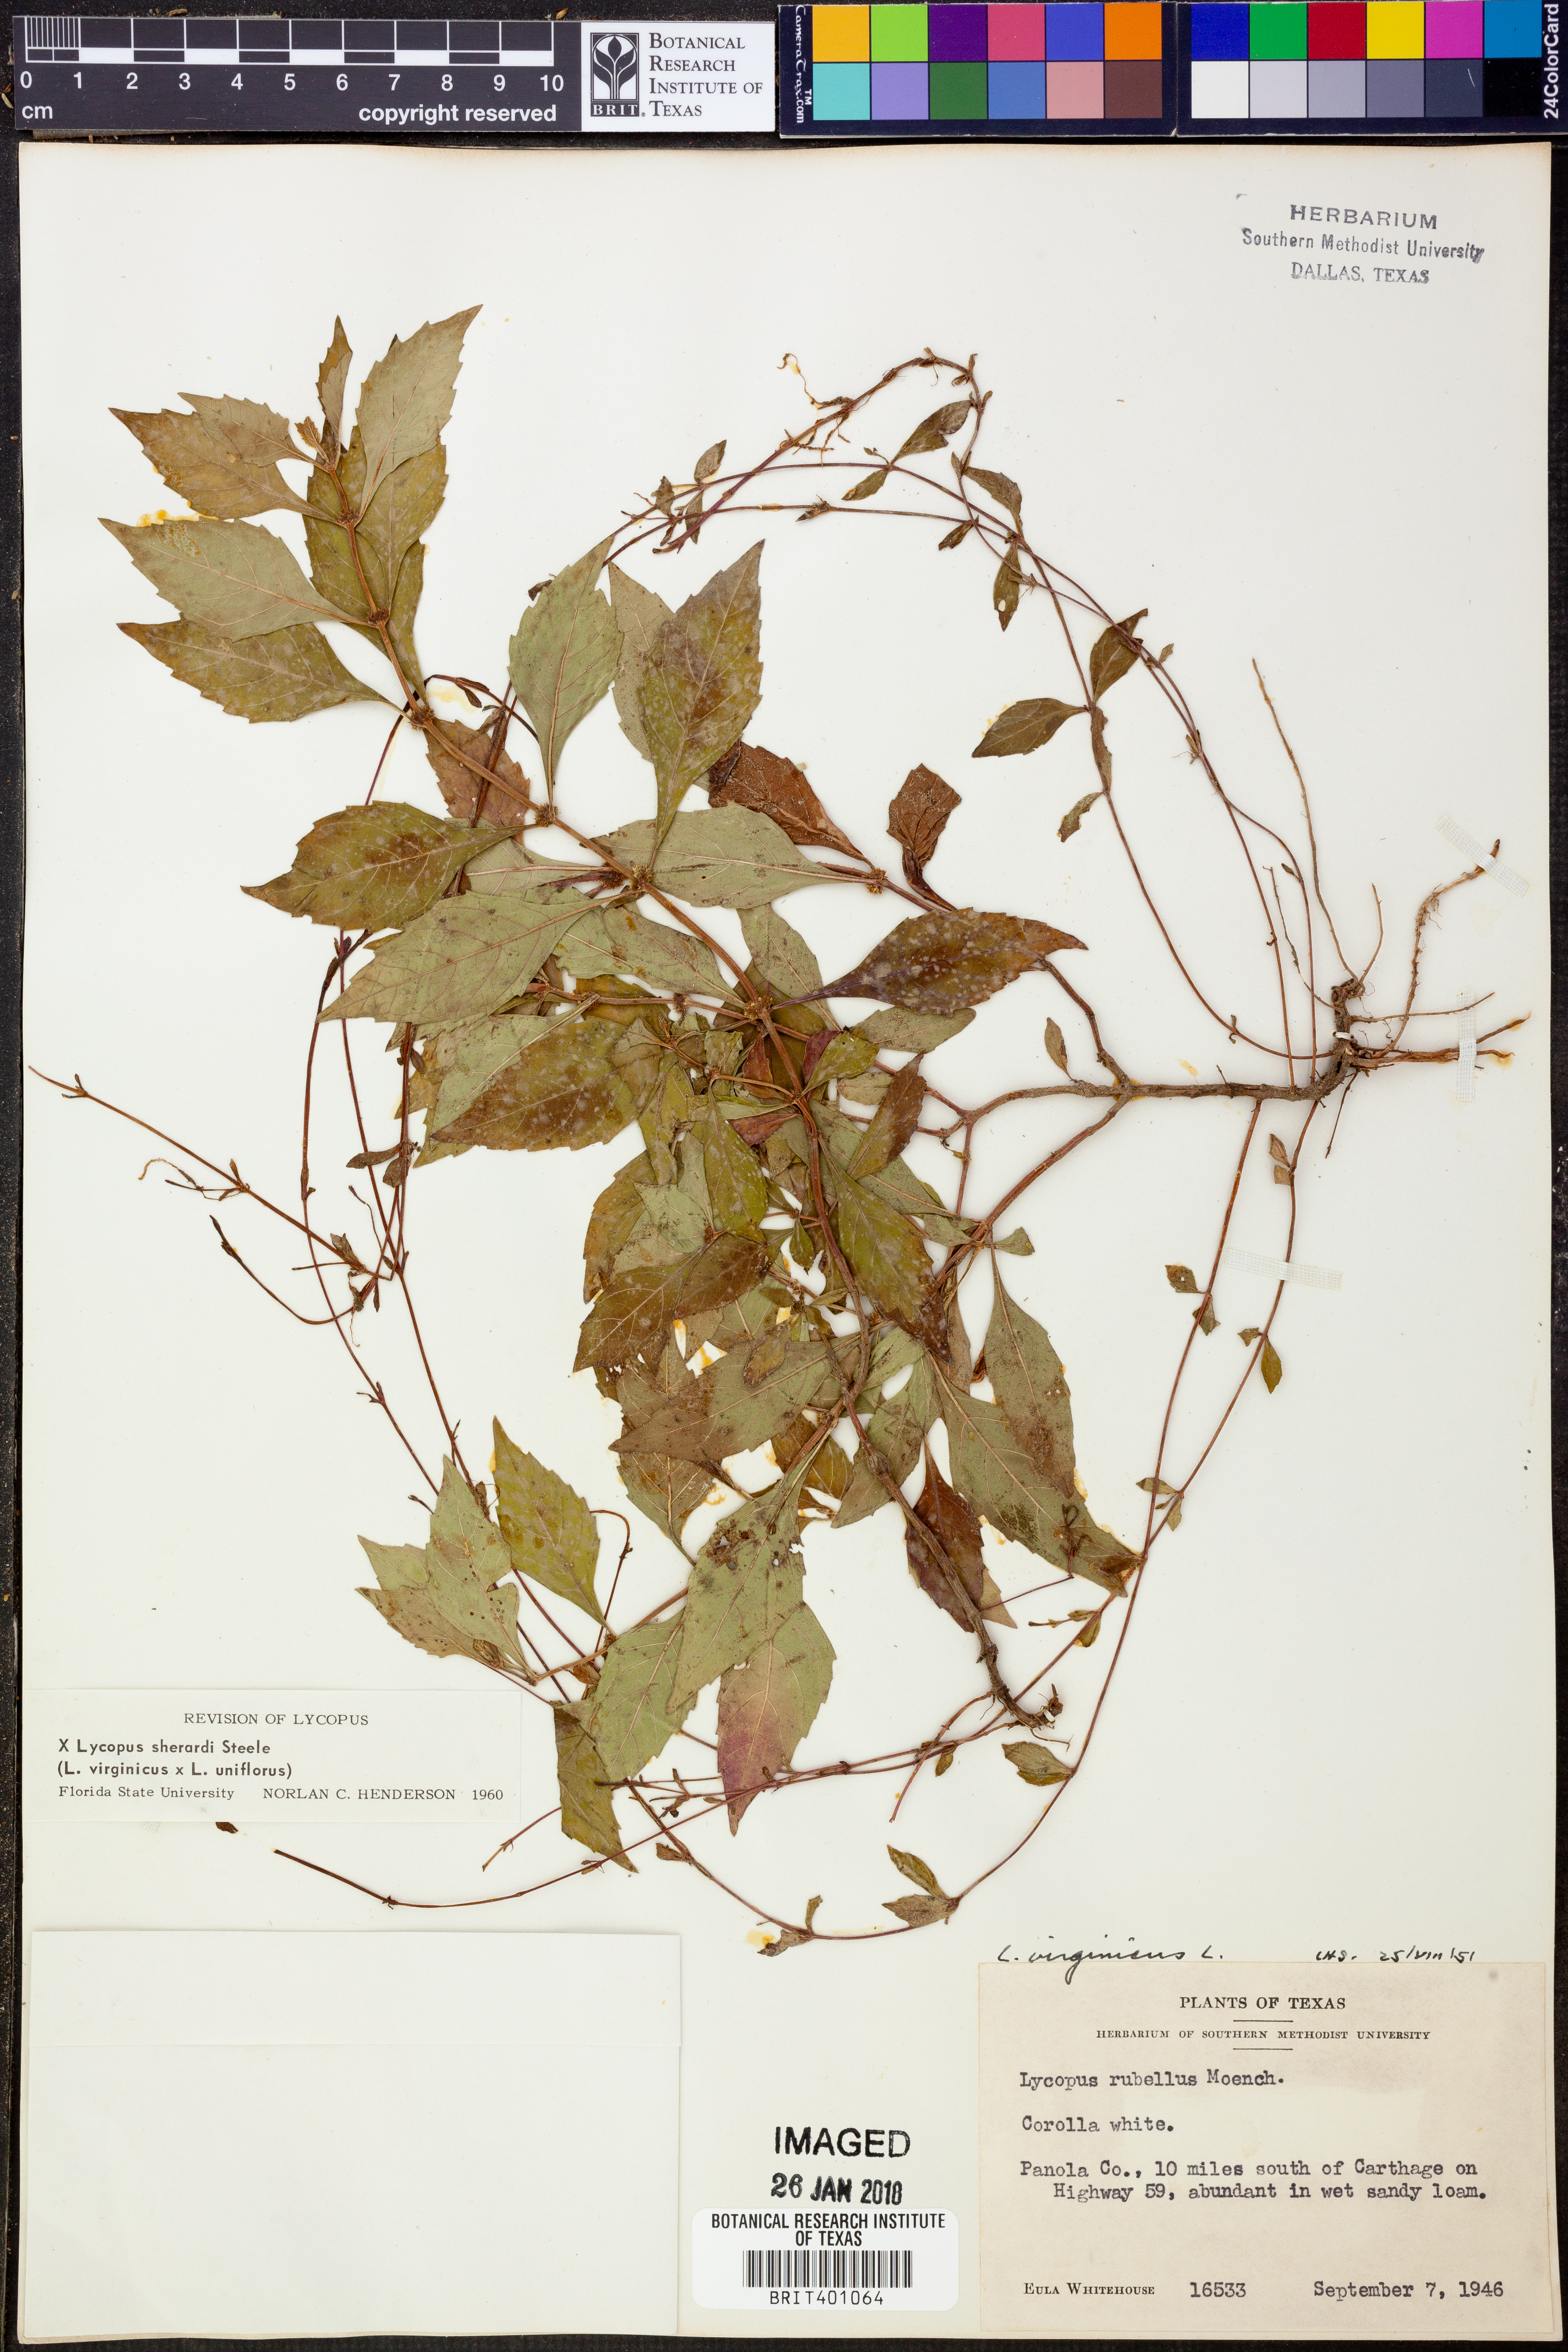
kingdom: Plantae
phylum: Tracheophyta
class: Magnoliopsida
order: Lamiales
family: Lamiaceae
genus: Lycopus
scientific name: Lycopus sherardii
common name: Sherard's water-horehound
